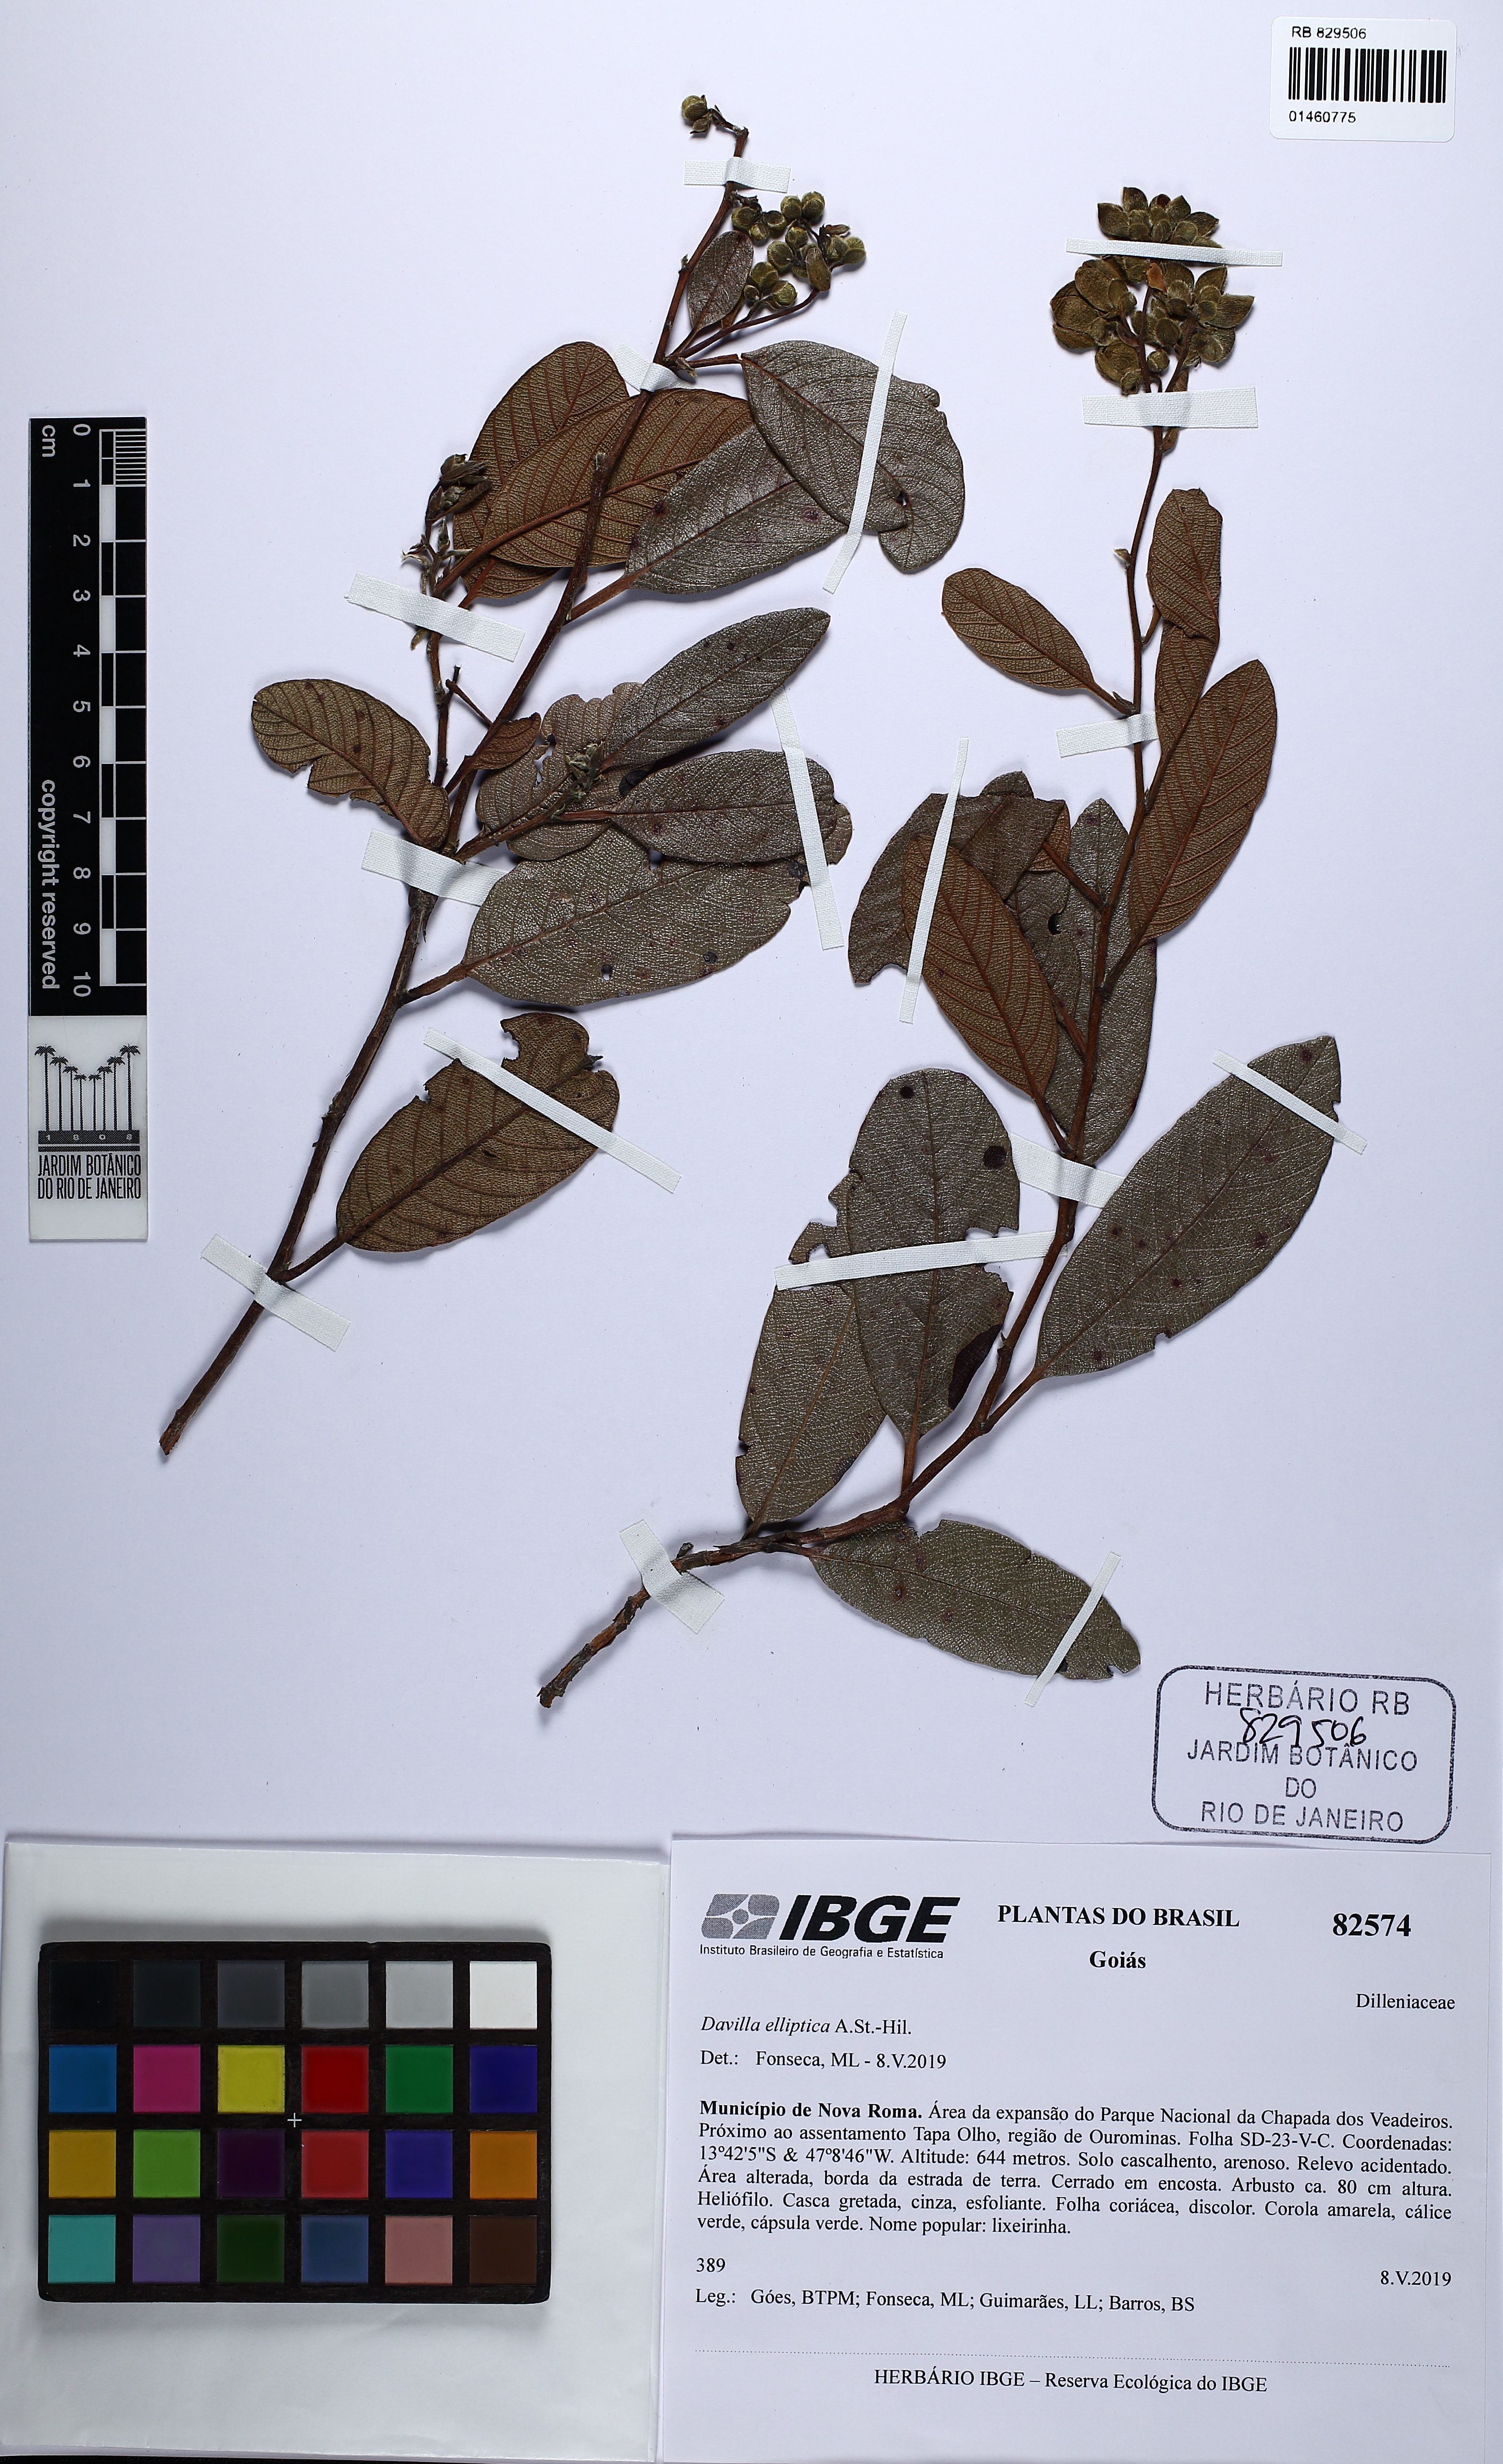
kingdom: Plantae
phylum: Tracheophyta
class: Magnoliopsida
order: Dilleniales
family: Dilleniaceae
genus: Davilla
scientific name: Davilla elliptica
